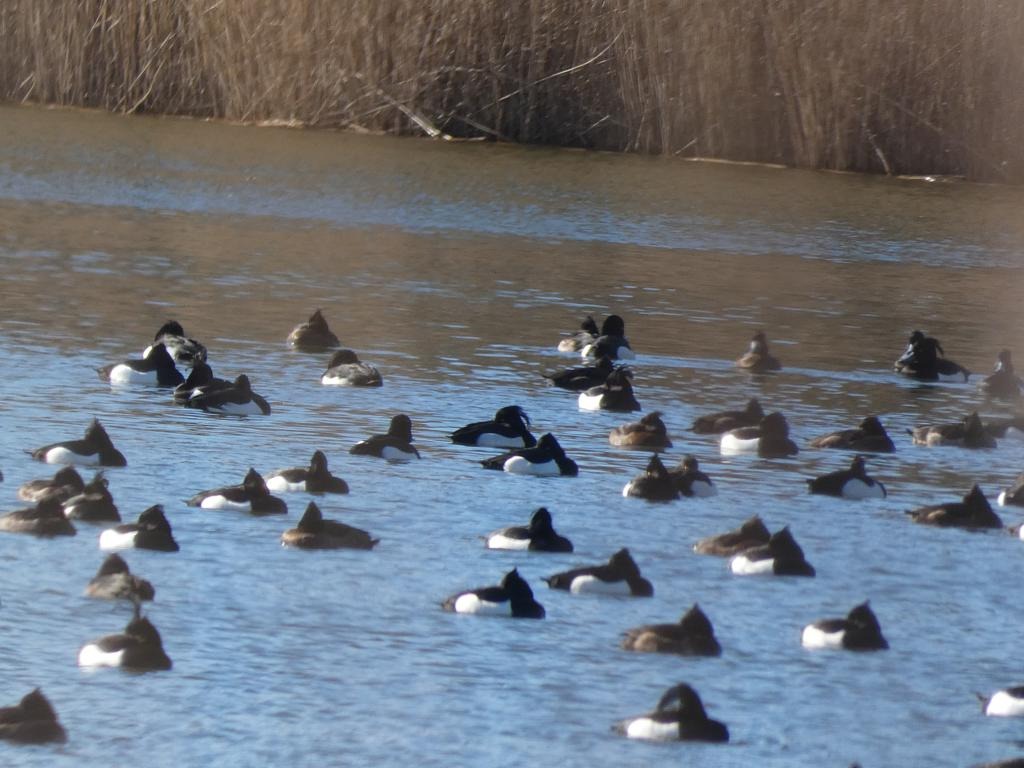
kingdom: Animalia
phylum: Chordata
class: Aves
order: Anseriformes
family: Anatidae
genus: Aythya
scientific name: Aythya fuligula
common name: Troldand
